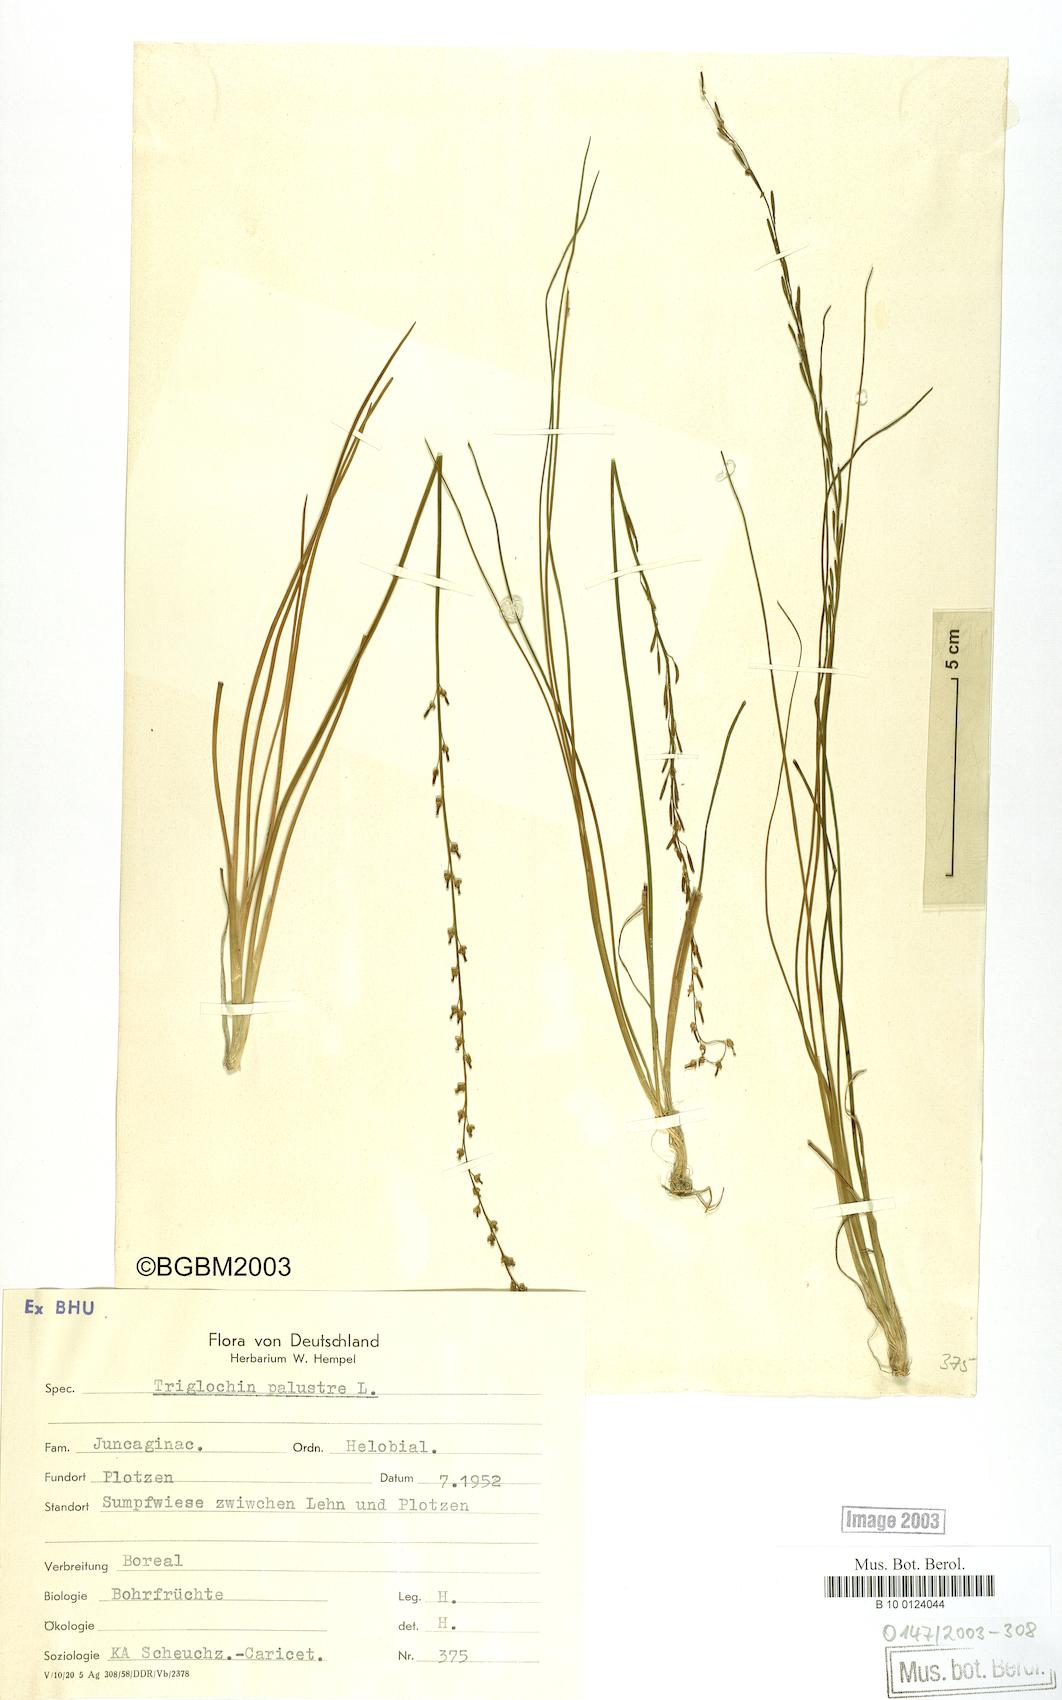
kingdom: Plantae
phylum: Tracheophyta
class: Liliopsida
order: Alismatales
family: Juncaginaceae
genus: Triglochin
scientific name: Triglochin palustris
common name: Marsh arrowgrass
